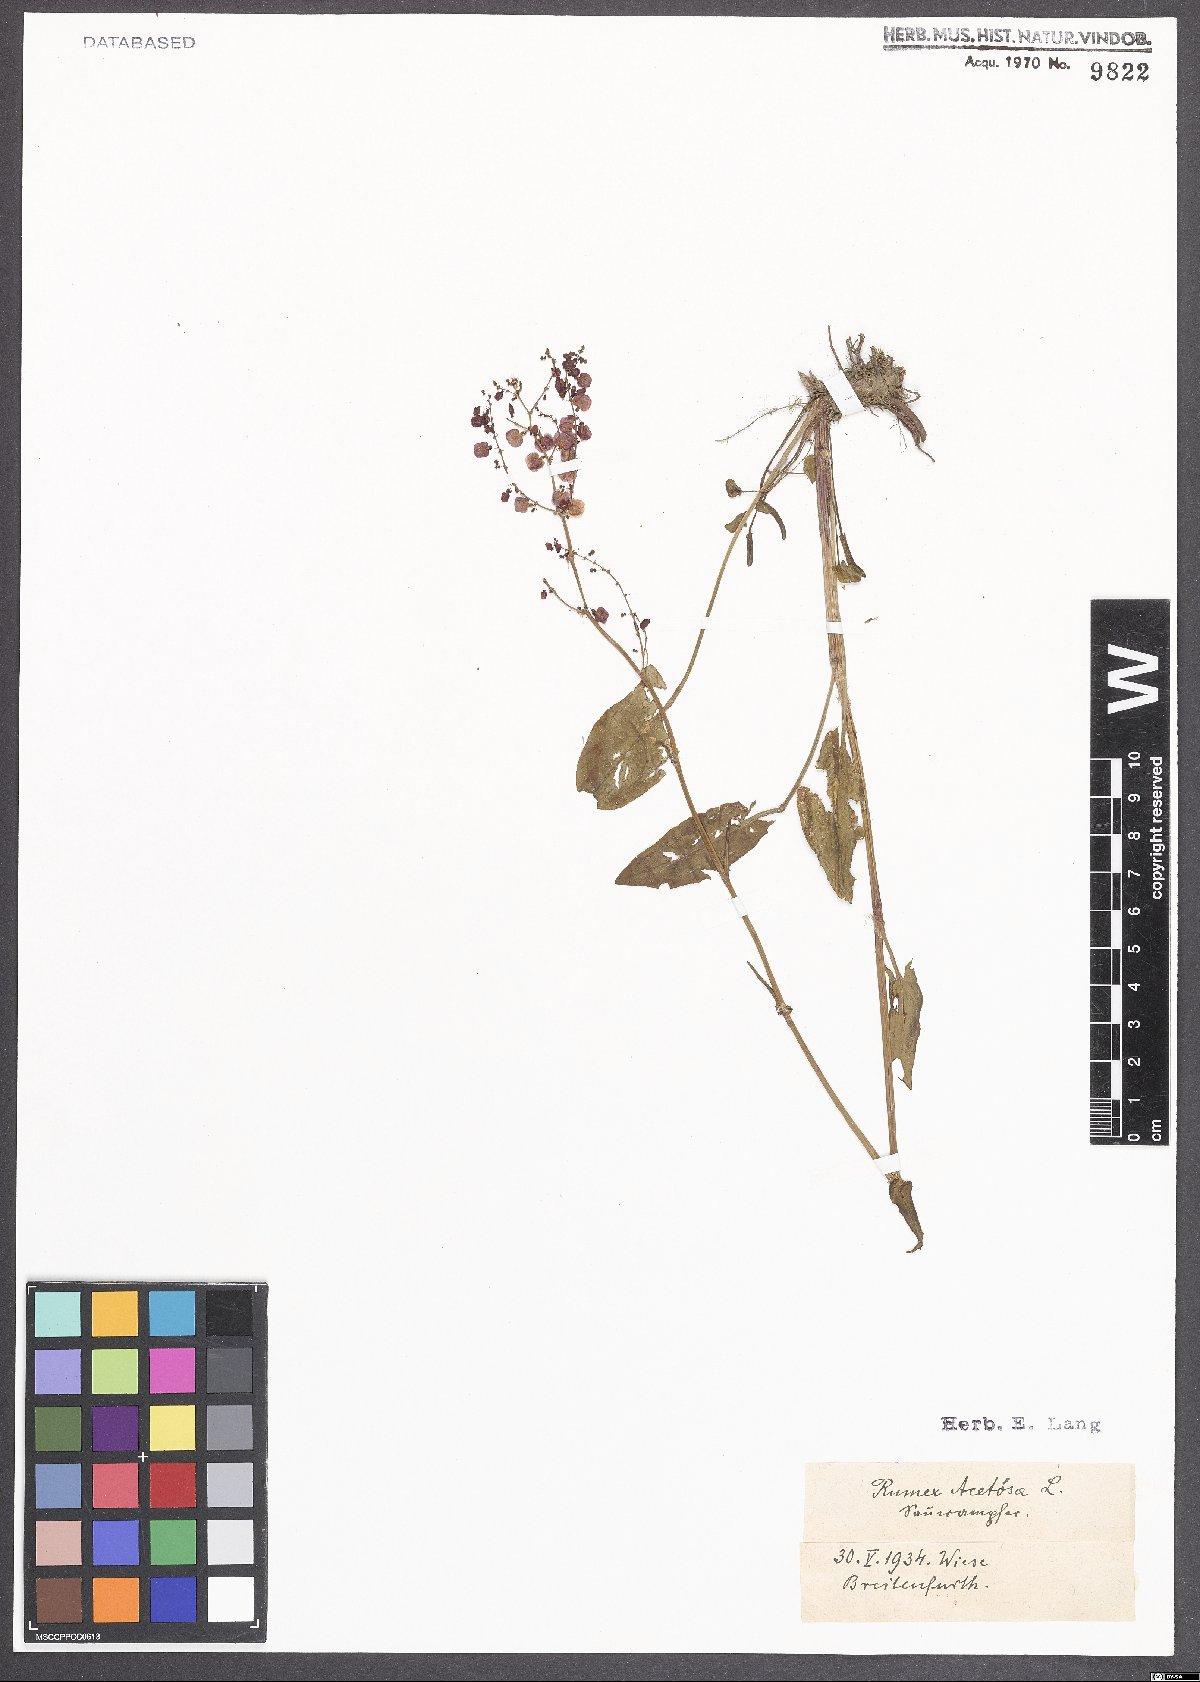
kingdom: Plantae
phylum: Tracheophyta
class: Magnoliopsida
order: Caryophyllales
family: Polygonaceae
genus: Rumex
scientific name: Rumex acetosa
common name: Garden sorrel
